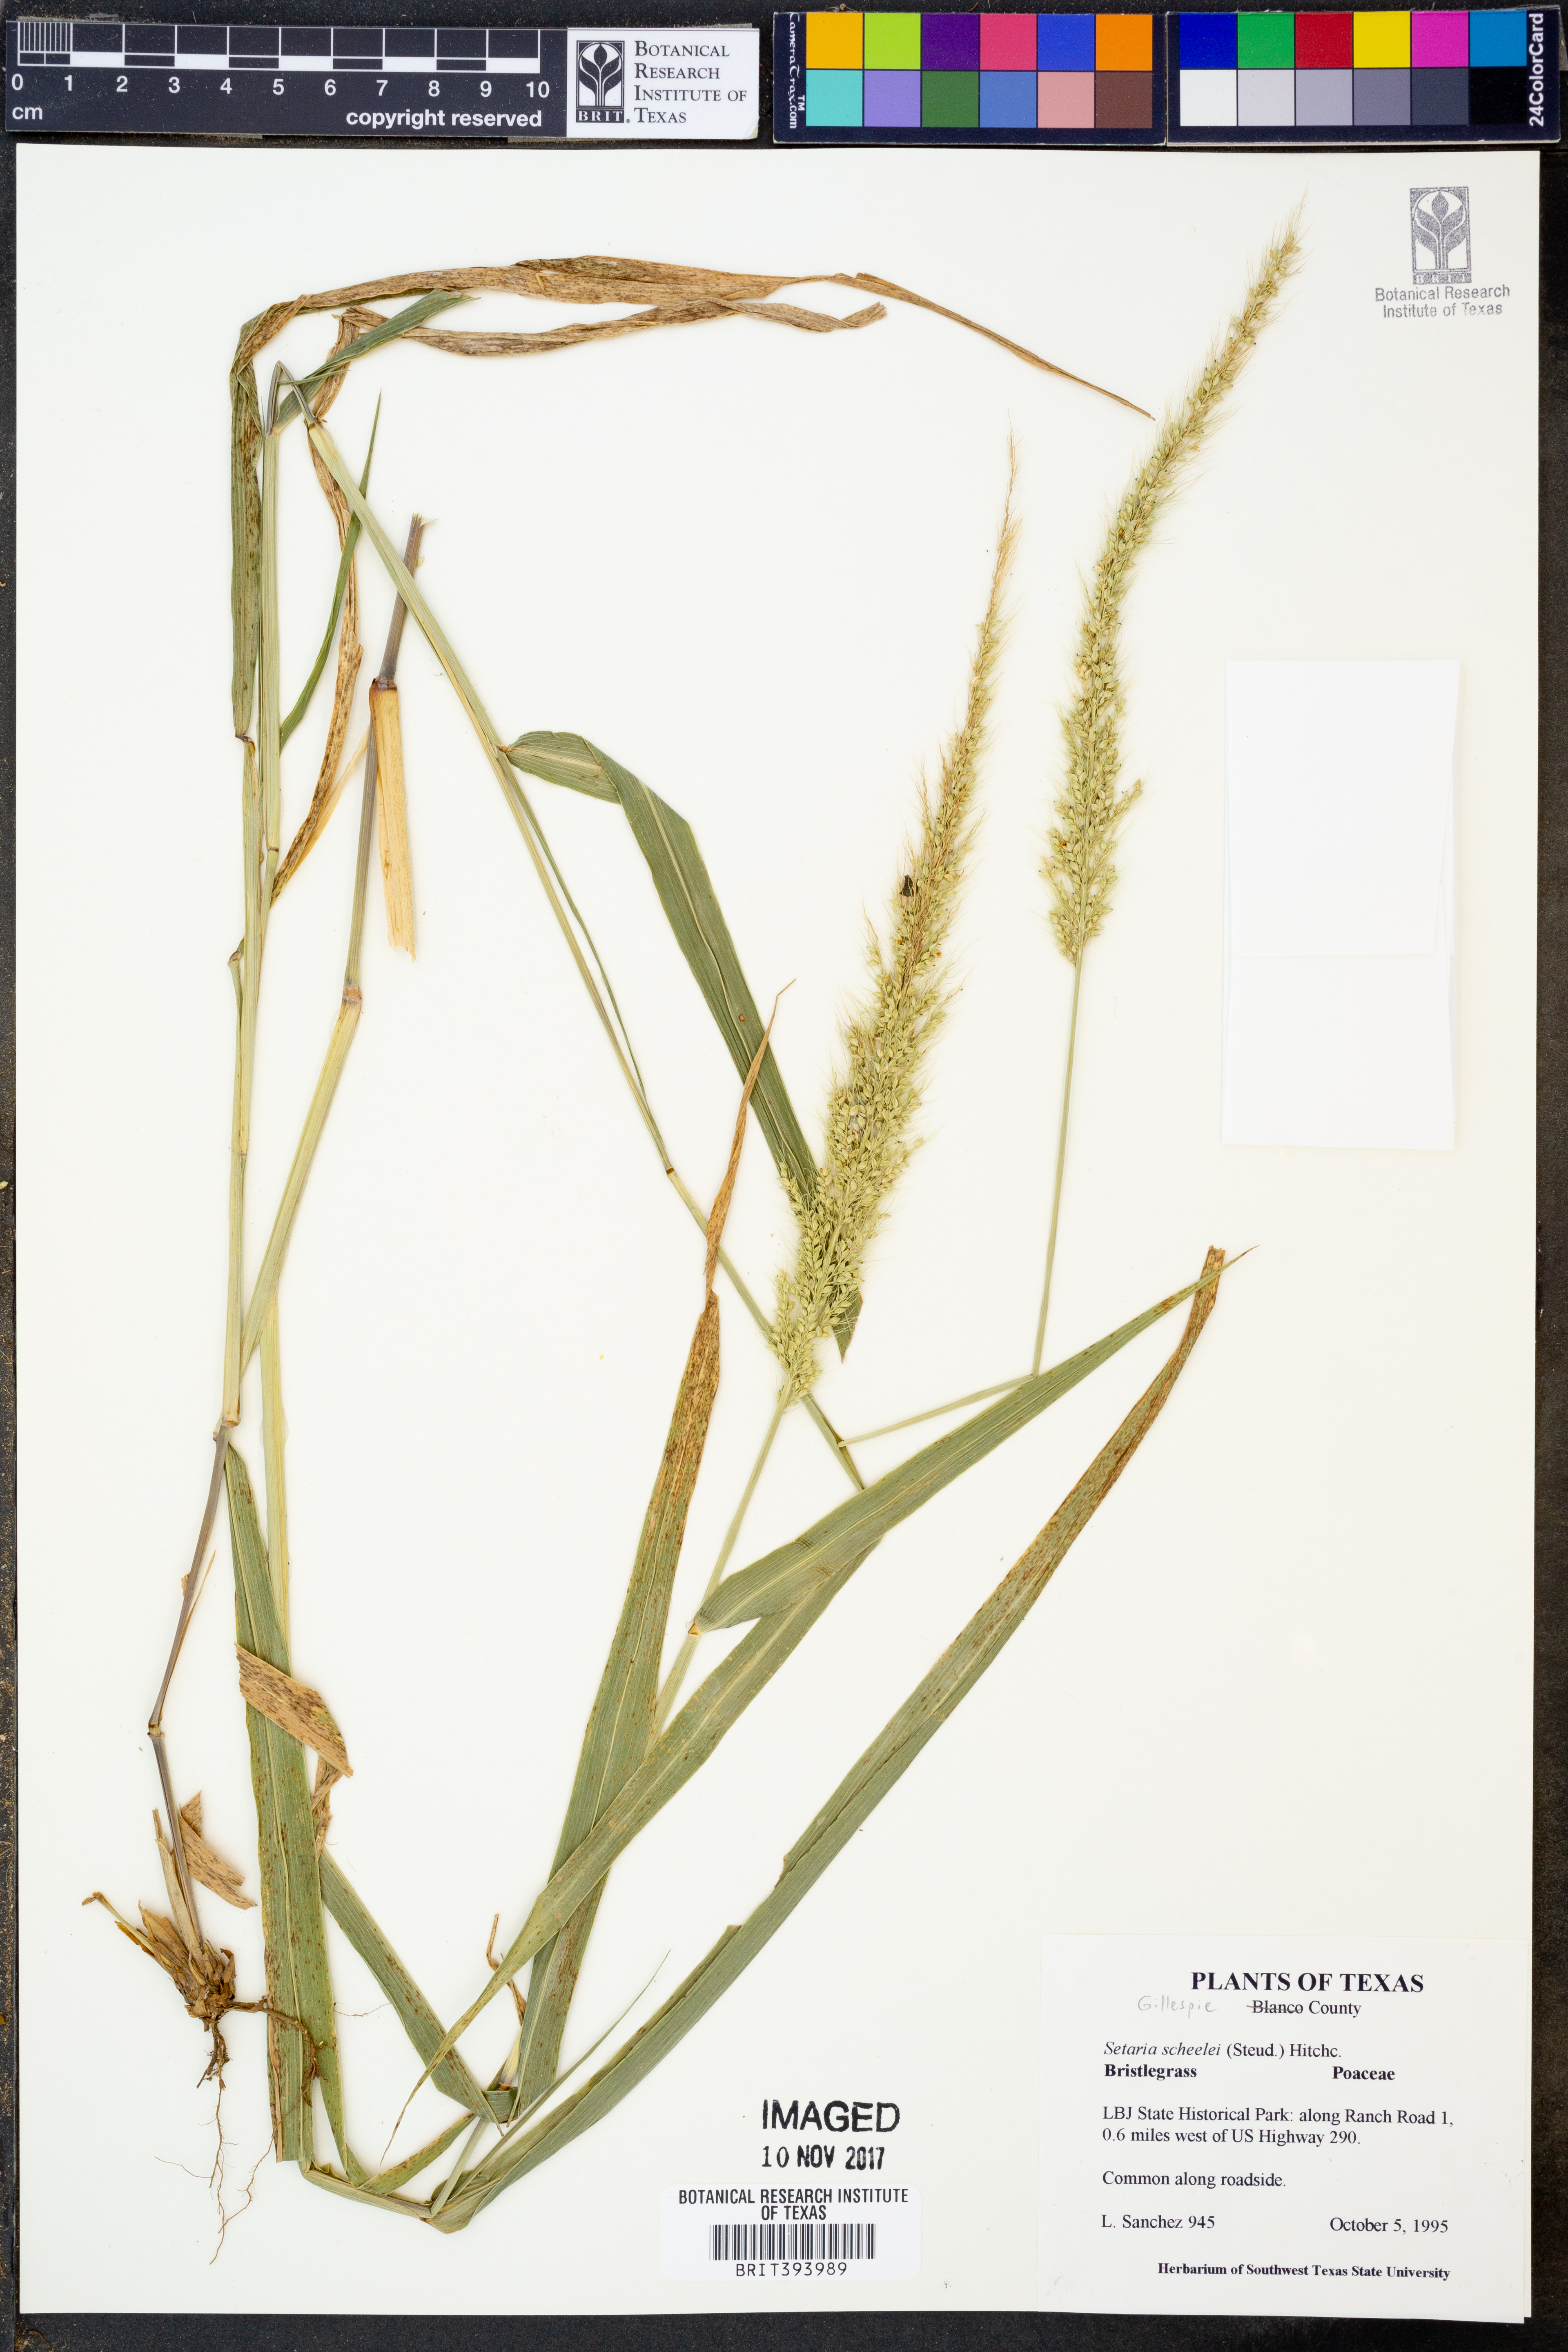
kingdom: Plantae
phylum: Tracheophyta
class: Liliopsida
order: Poales
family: Poaceae
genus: Setaria
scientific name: Setaria scheelei
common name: Southwestern bristle grass
